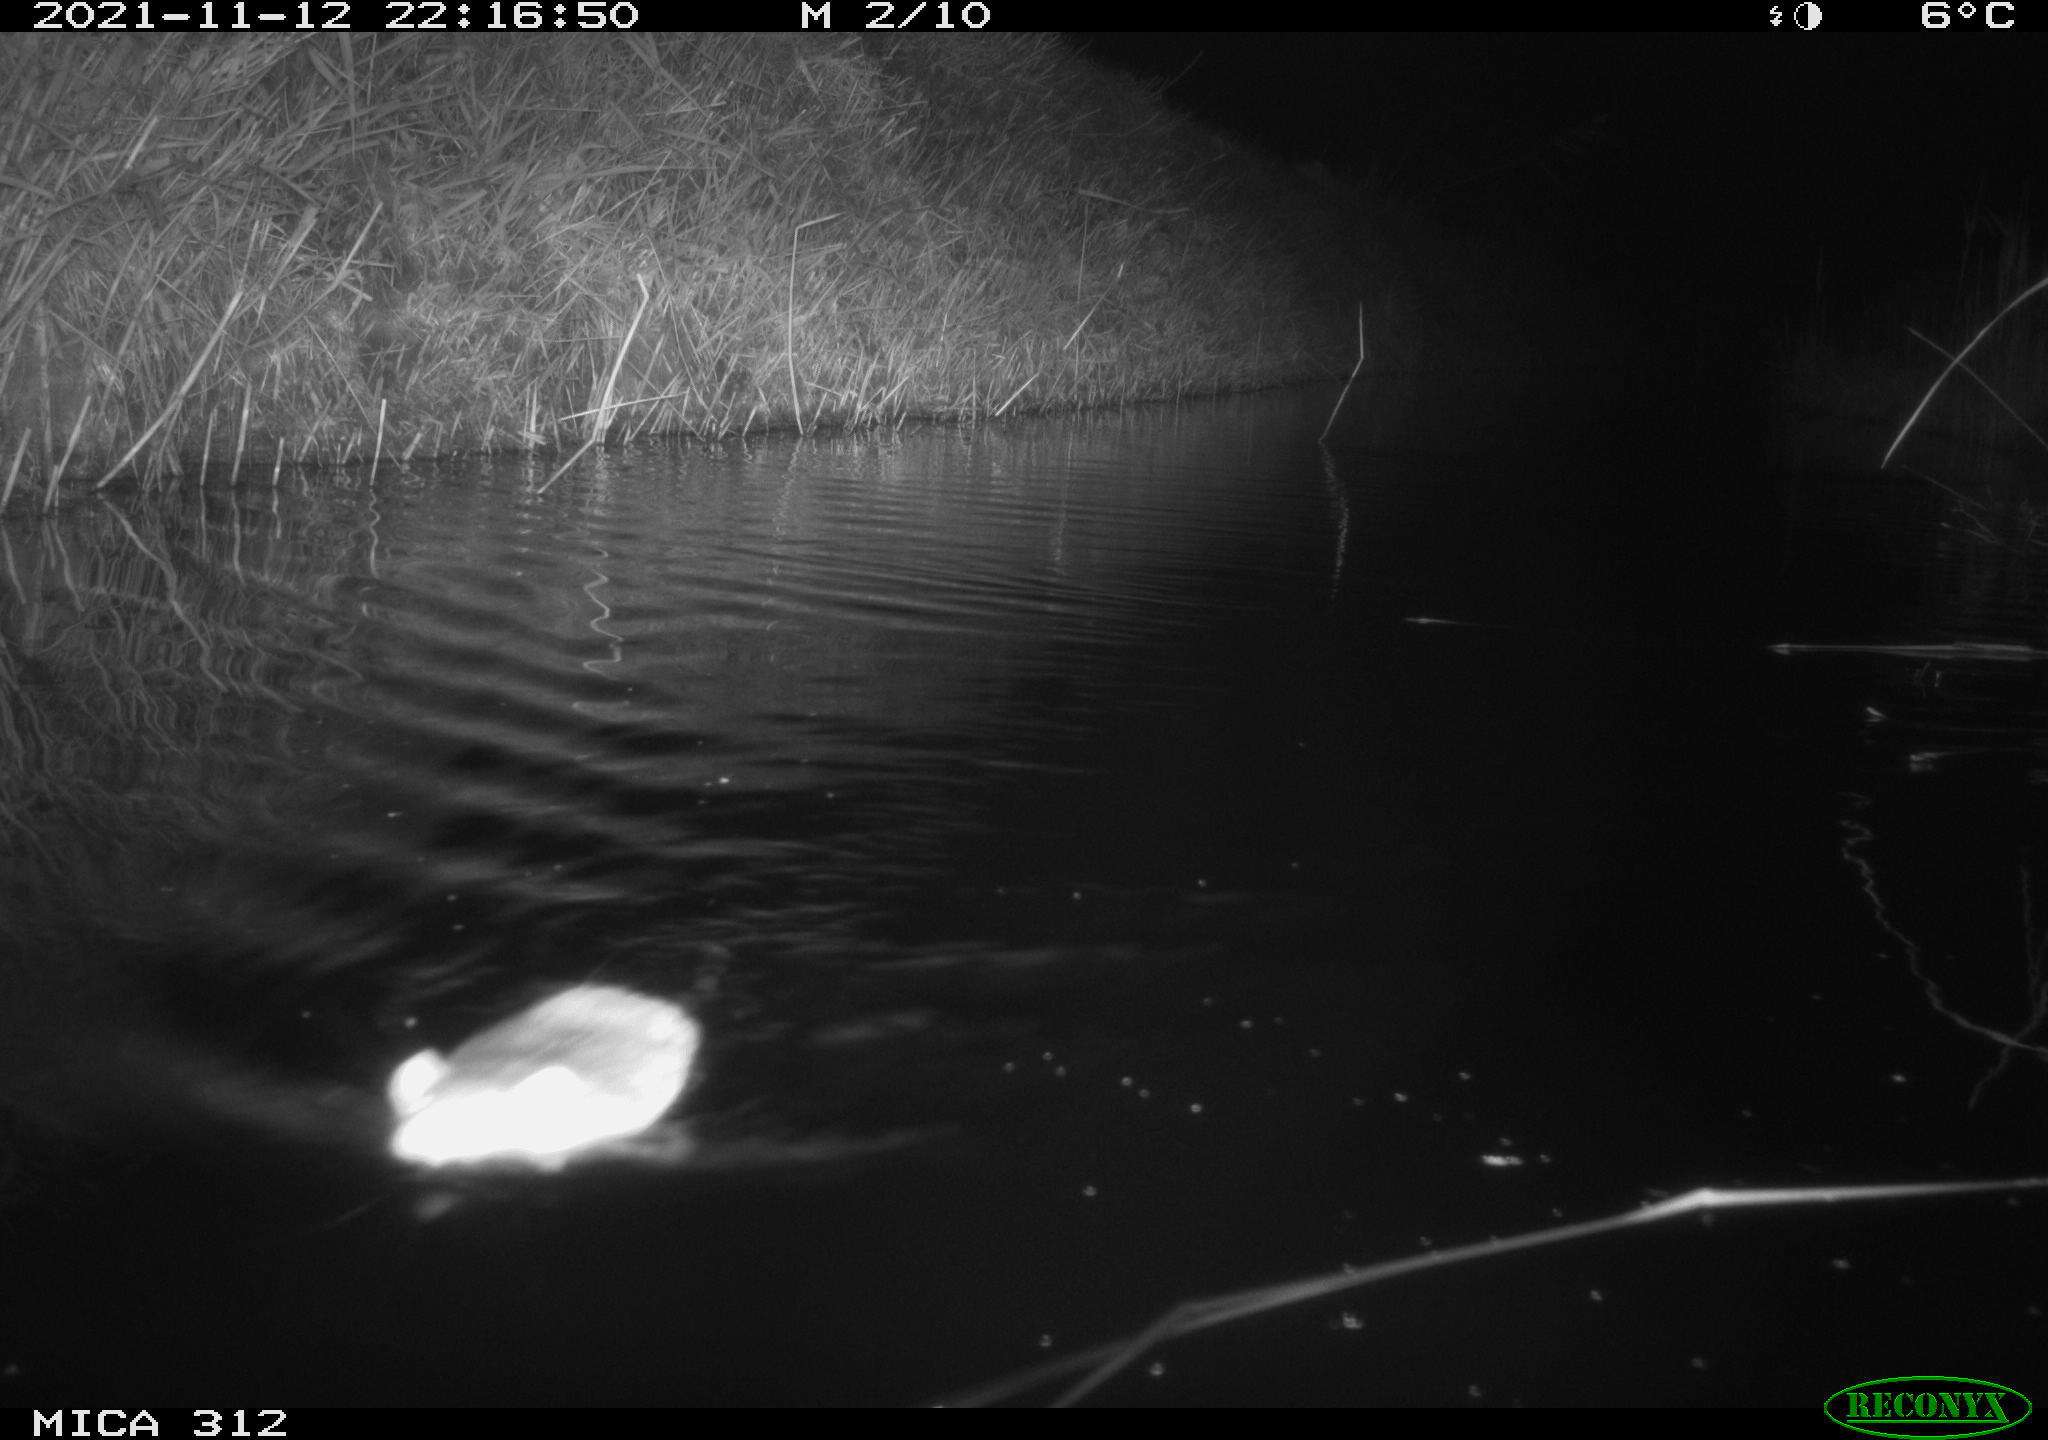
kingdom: Animalia
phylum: Chordata
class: Mammalia
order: Rodentia
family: Muridae
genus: Rattus
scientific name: Rattus norvegicus
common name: Brown rat
